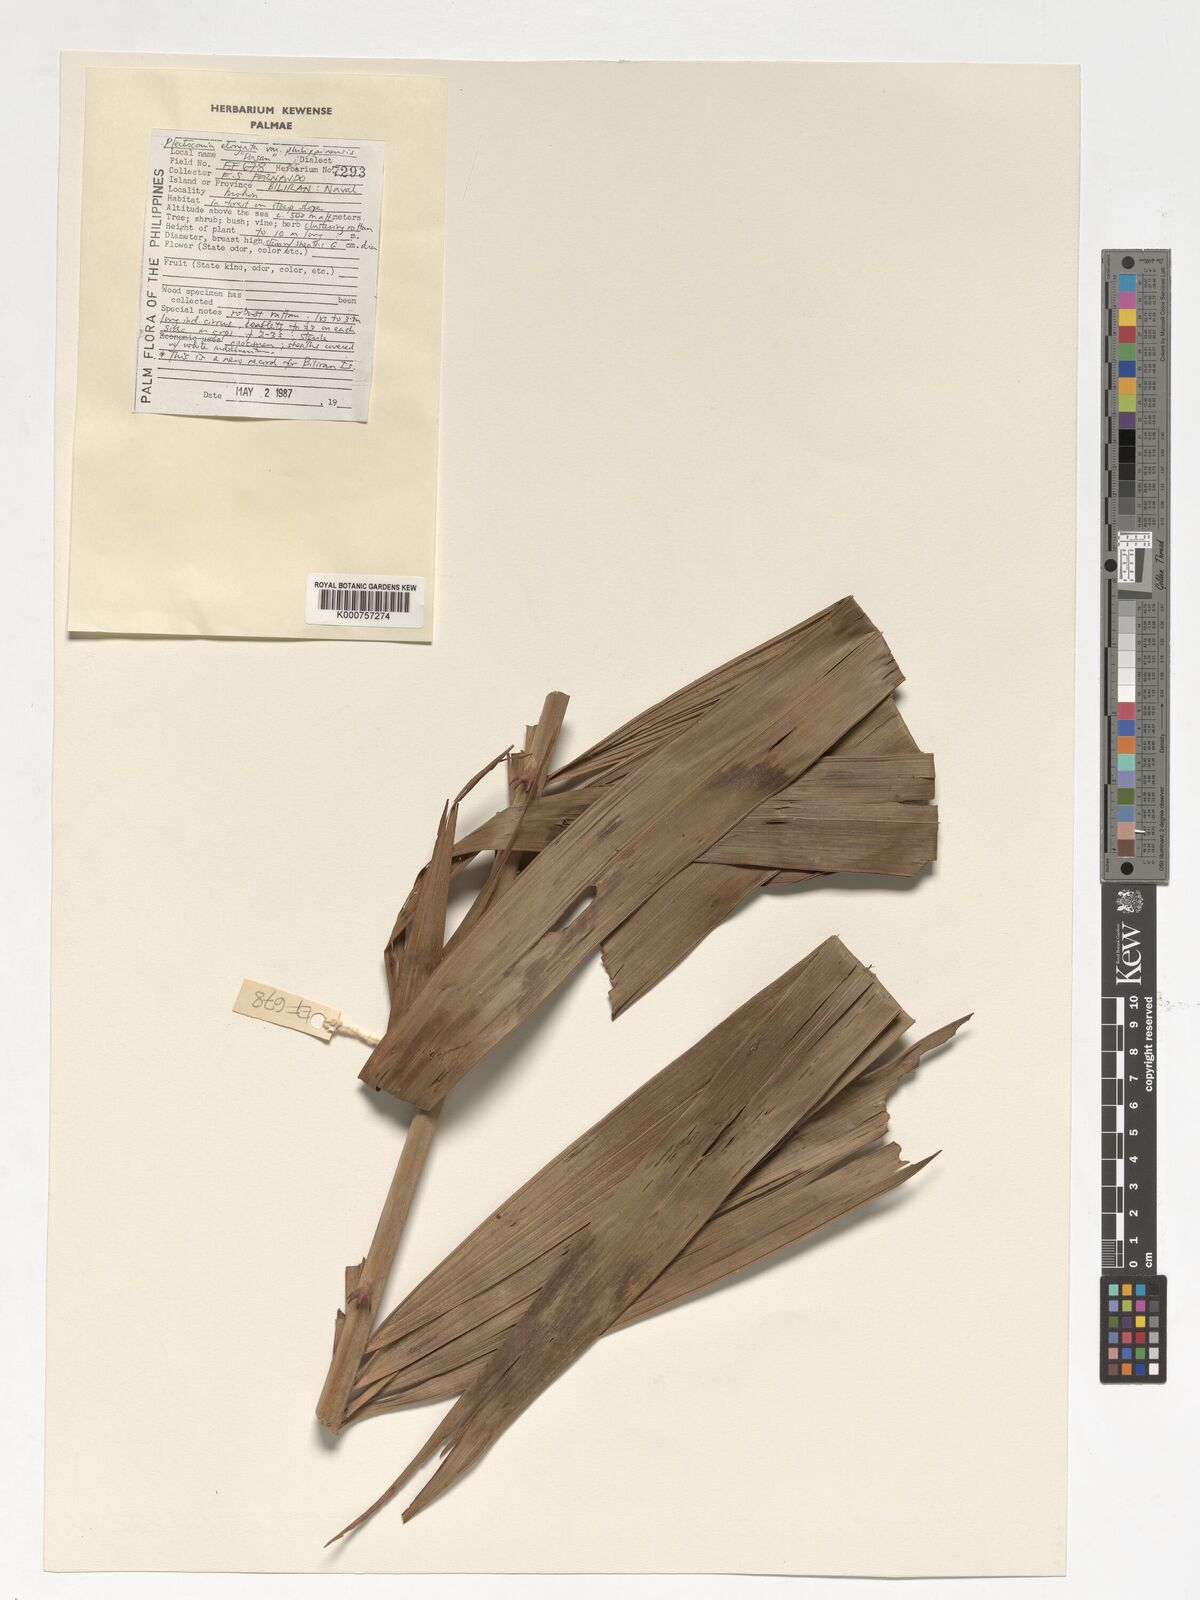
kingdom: Plantae
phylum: Tracheophyta
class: Liliopsida
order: Arecales
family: Arecaceae
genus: Plectocomia
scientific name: Plectocomia elongata
